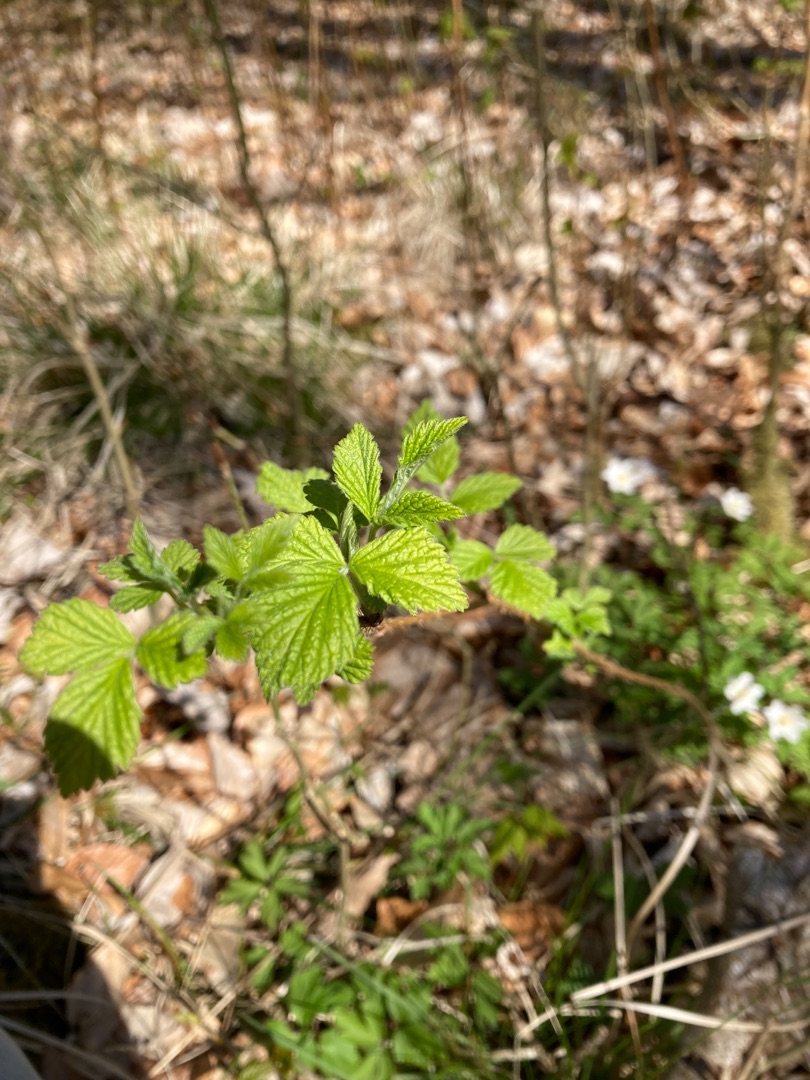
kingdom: Plantae
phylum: Tracheophyta
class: Magnoliopsida
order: Rosales
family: Rosaceae
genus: Rubus
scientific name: Rubus idaeus
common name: Hindbær
